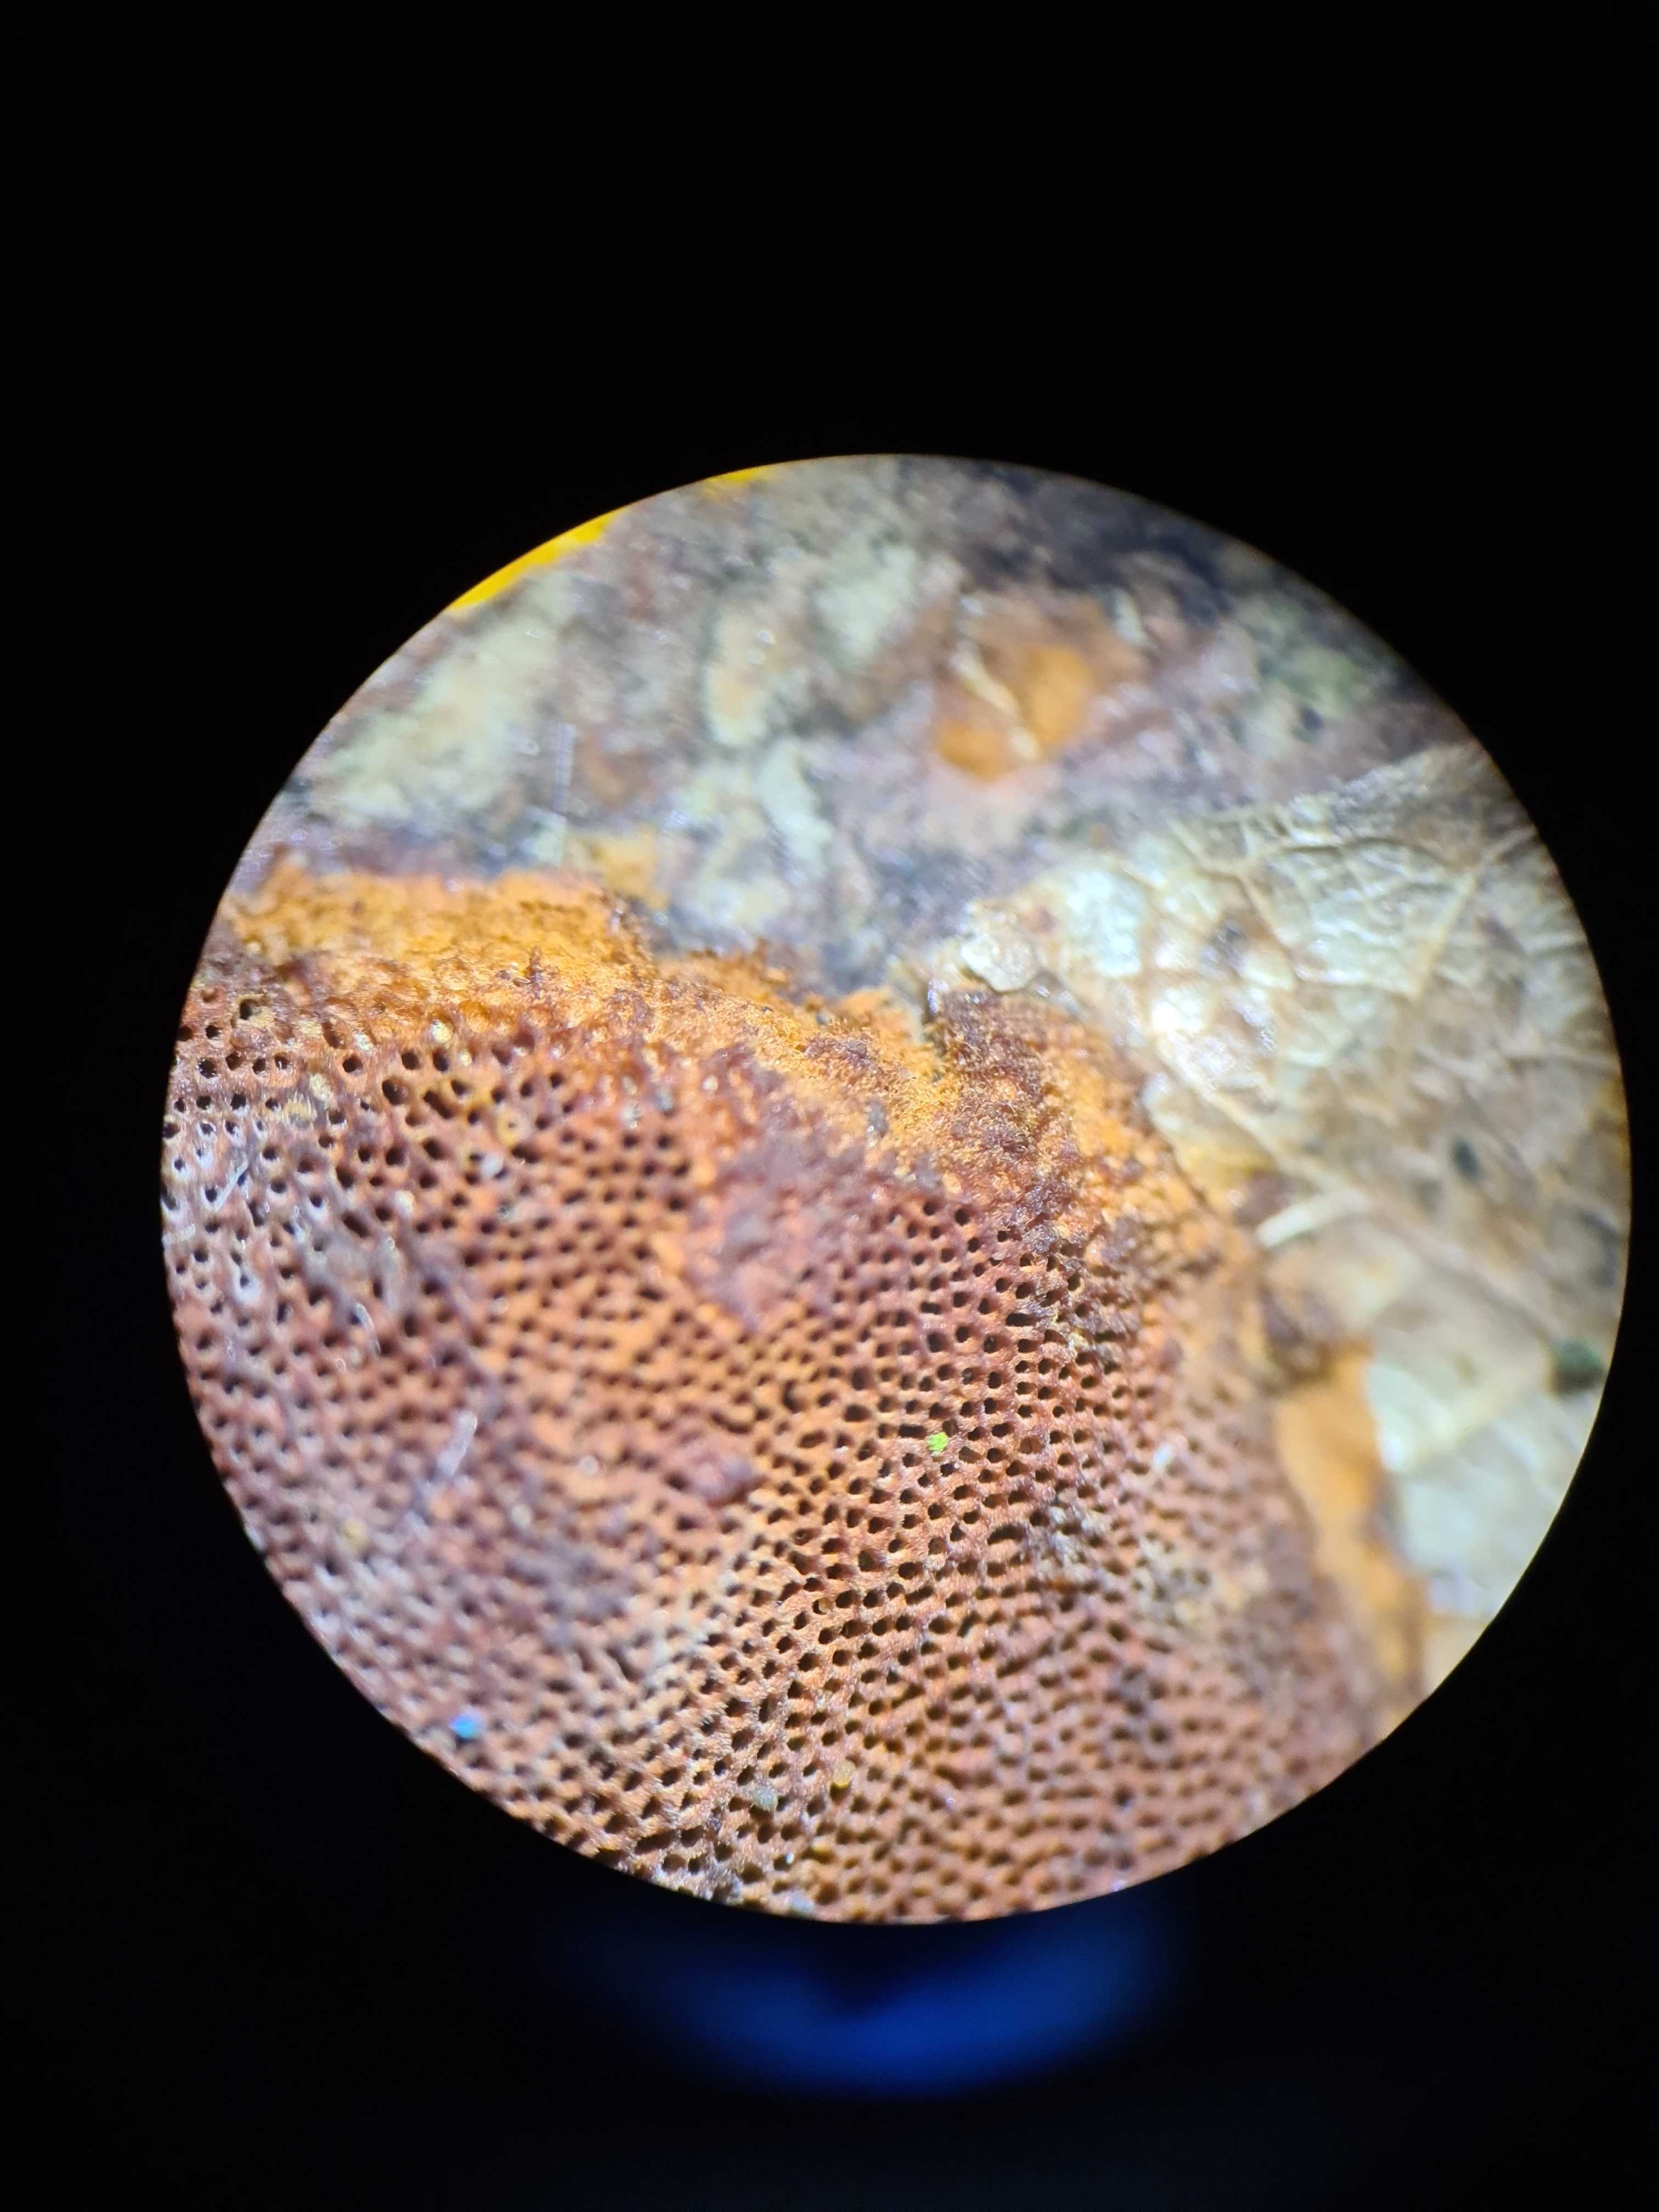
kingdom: Fungi
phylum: Basidiomycota
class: Agaricomycetes
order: Hymenochaetales
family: Hymenochaetaceae
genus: Fuscoporia
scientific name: Fuscoporia ferrea
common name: skorpe-ildporesvamp
